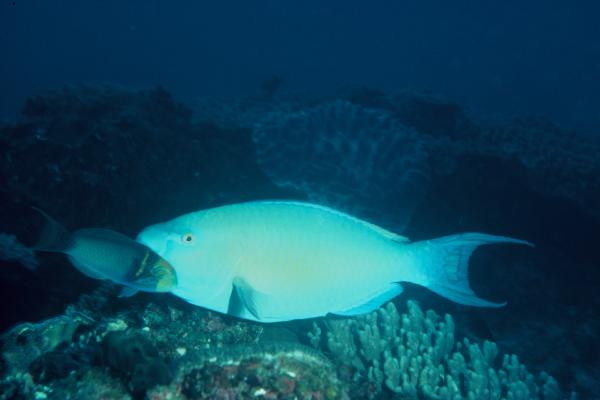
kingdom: Animalia
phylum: Chordata
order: Perciformes
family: Scaridae
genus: Scarus
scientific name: Scarus rubroviolaceus
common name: Ember parrotfish
